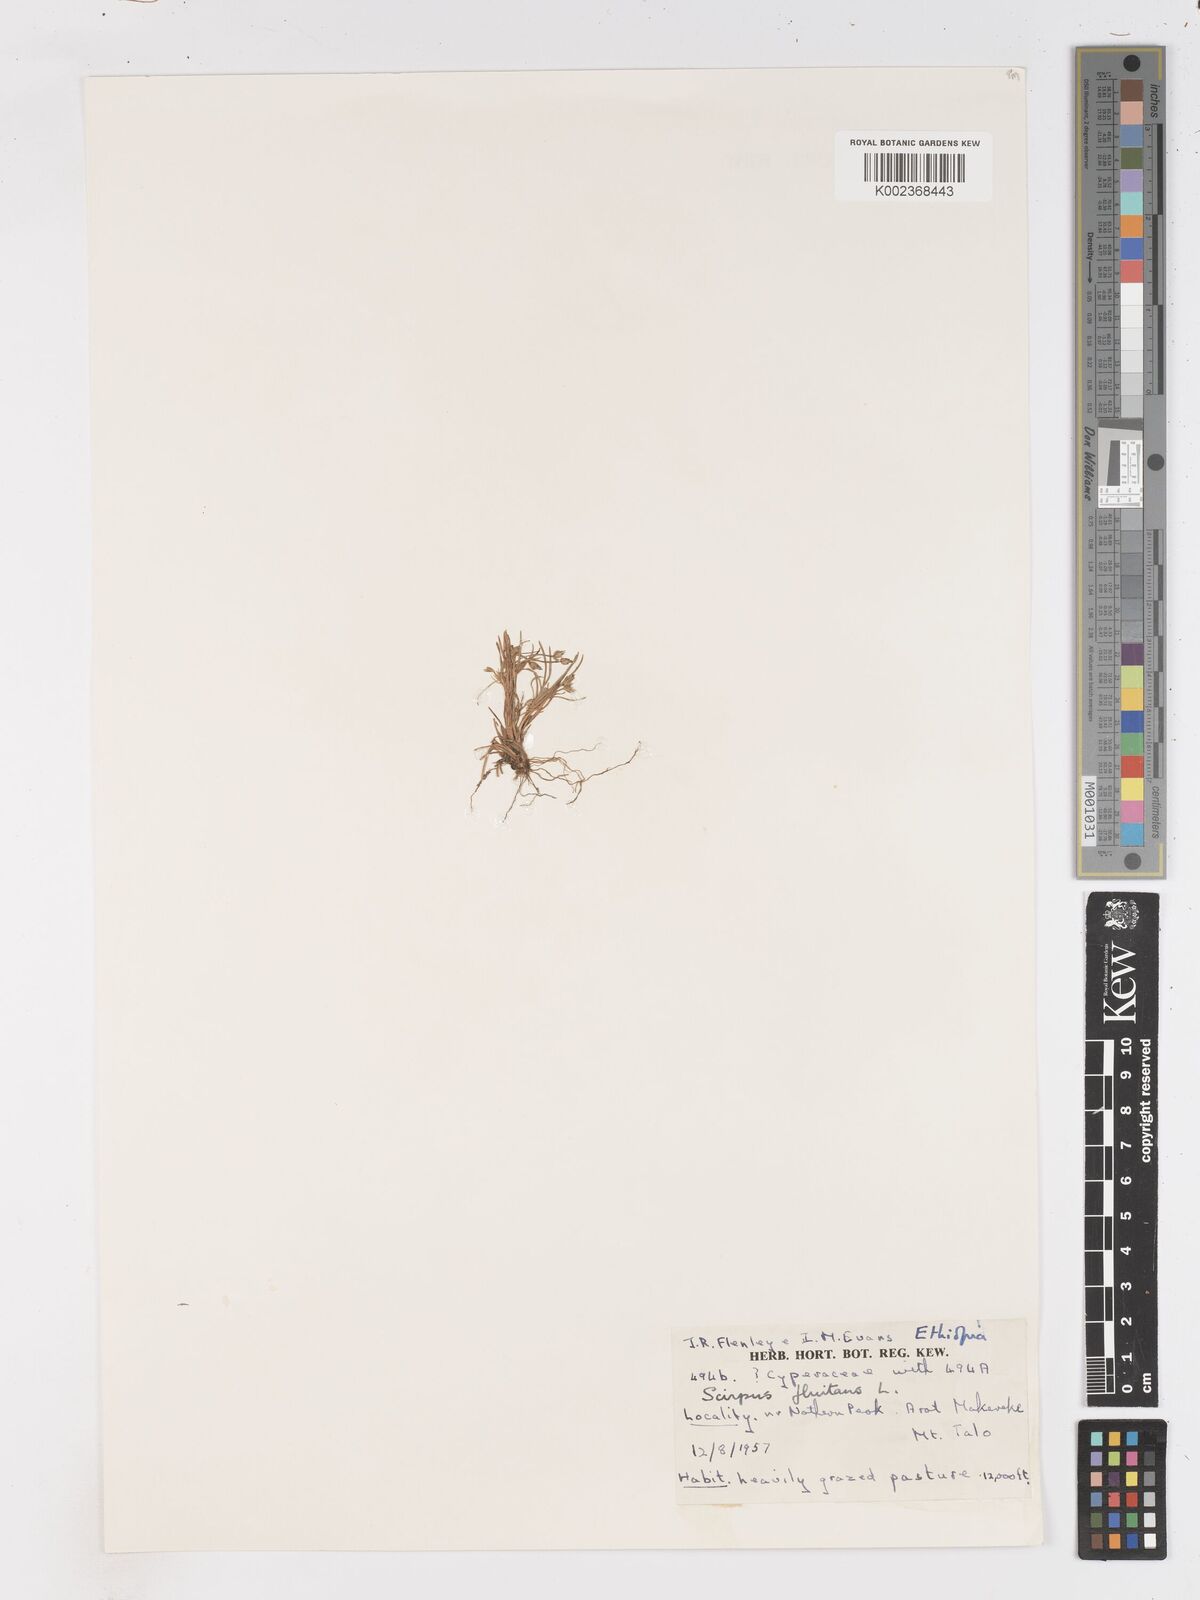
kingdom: Plantae
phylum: Tracheophyta
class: Liliopsida
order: Poales
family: Cyperaceae
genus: Isolepis
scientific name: Isolepis fluitans
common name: Floating club-rush
